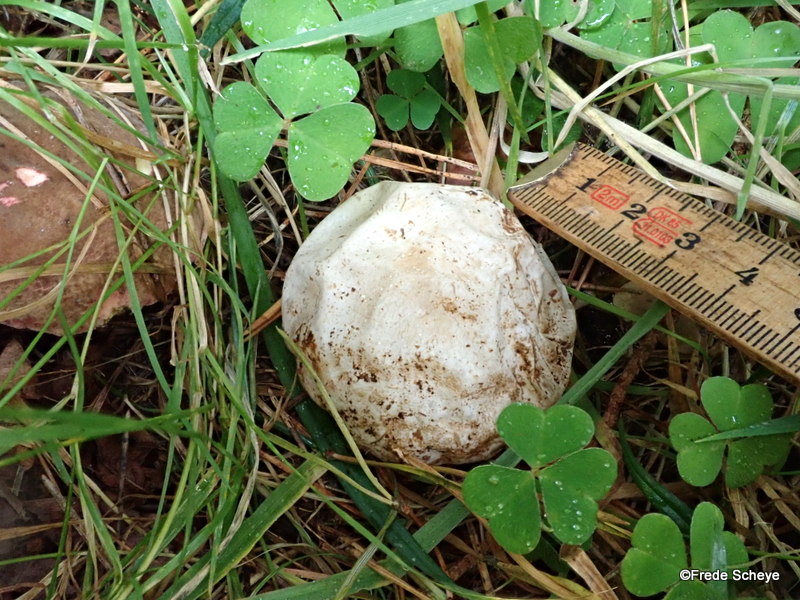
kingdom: Fungi
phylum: Basidiomycota
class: Agaricomycetes
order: Phallales
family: Phallaceae
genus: Phallus
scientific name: Phallus impudicus
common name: almindelig stinksvamp
